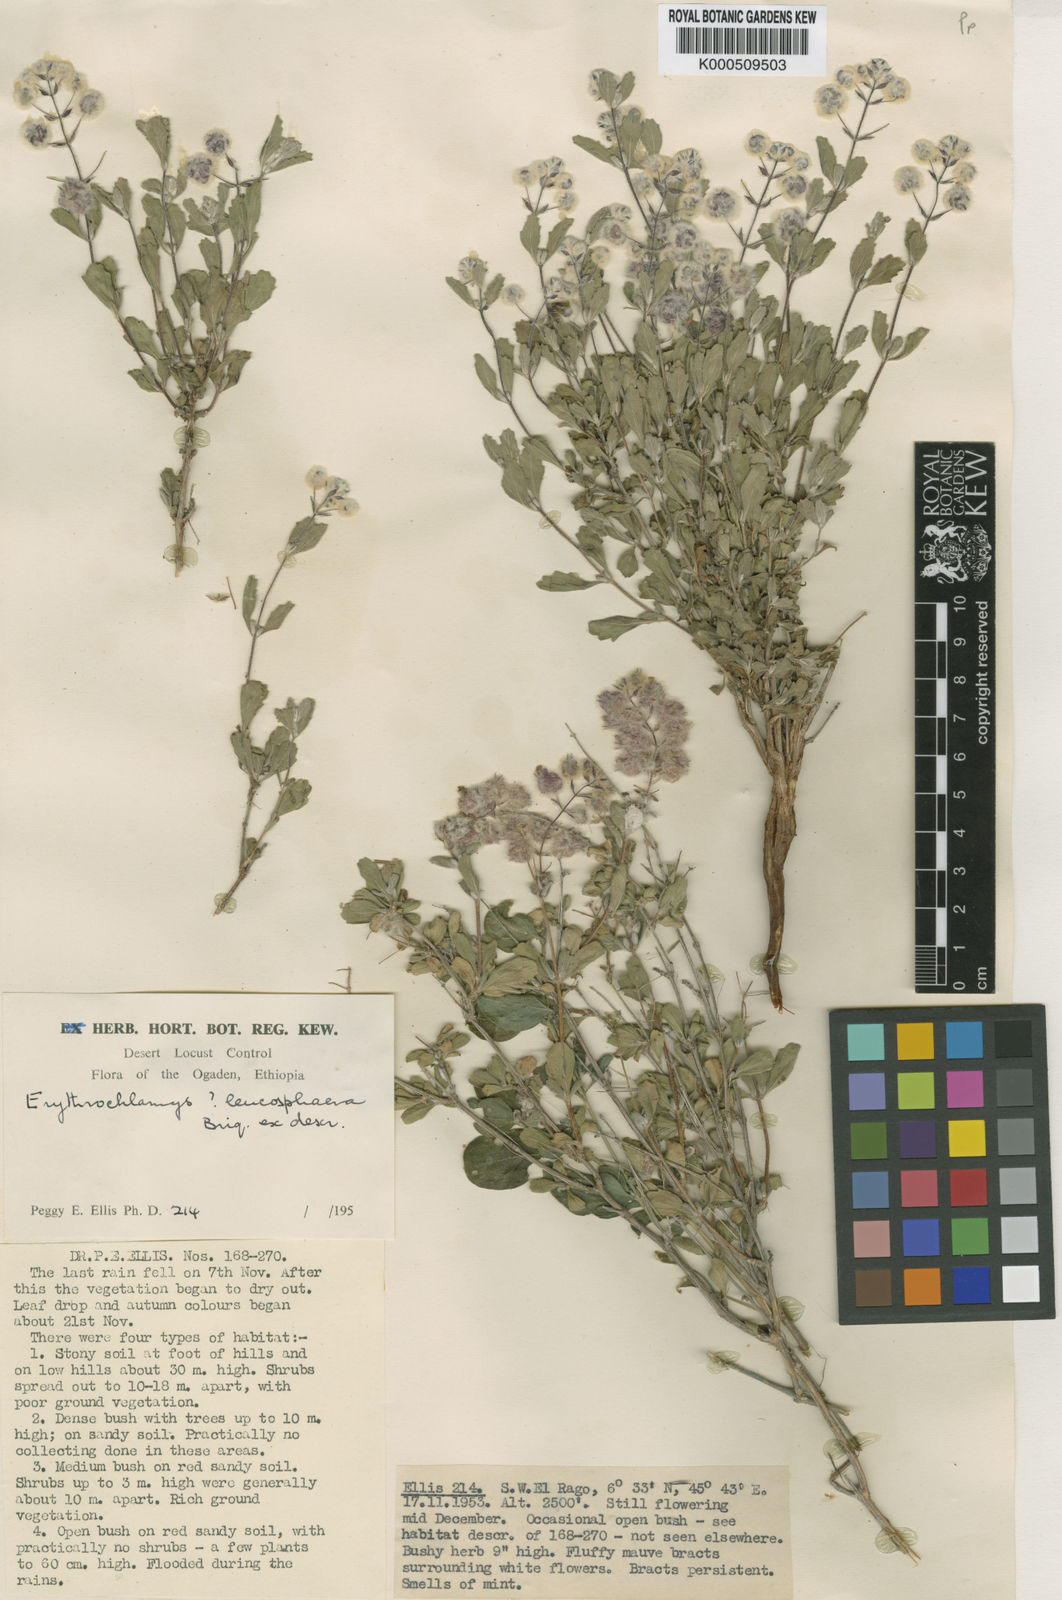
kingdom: Plantae
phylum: Tracheophyta
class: Magnoliopsida
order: Lamiales
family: Lamiaceae
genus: Endostemon
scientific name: Endostemon leucosphaerus
